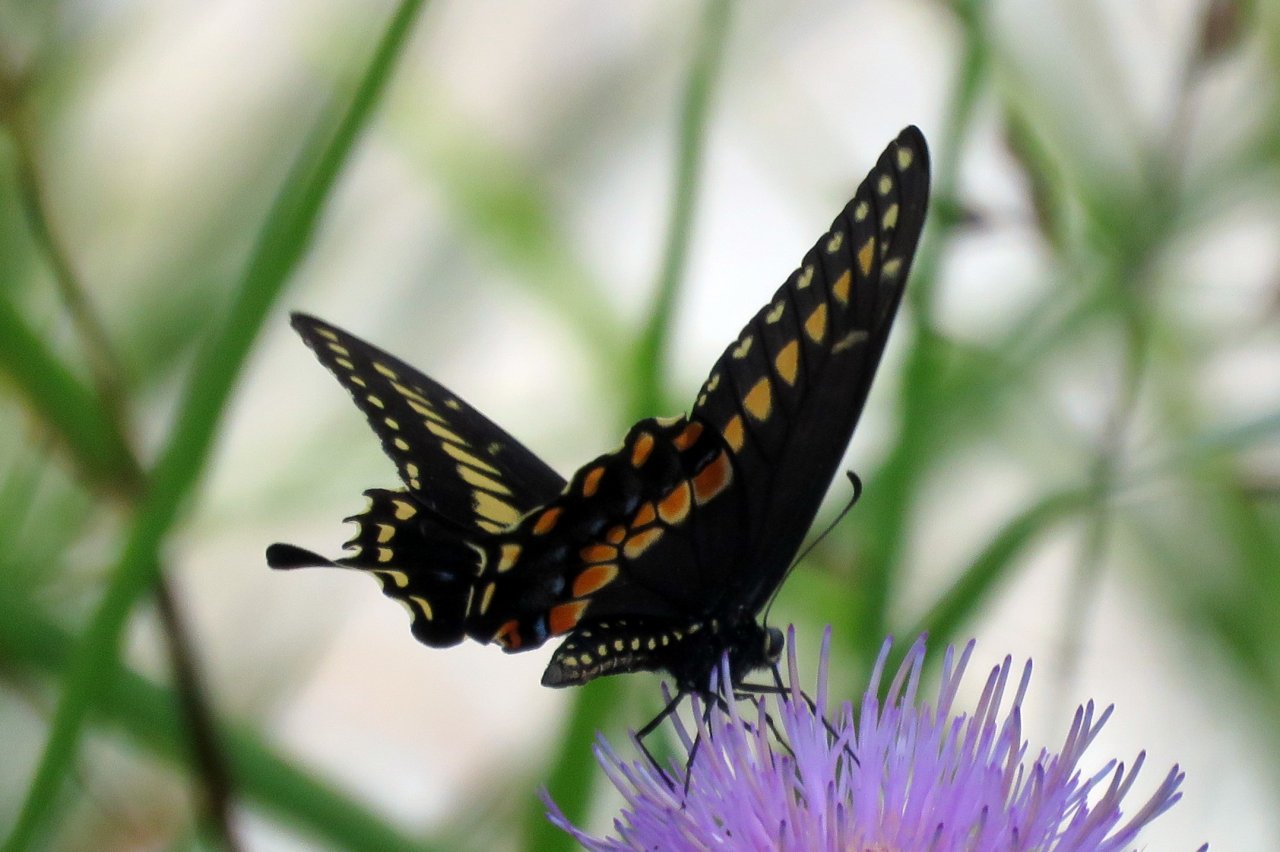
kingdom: Animalia
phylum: Arthropoda
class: Insecta
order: Lepidoptera
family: Papilionidae
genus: Papilio
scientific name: Papilio polyxenes
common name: Black Swallowtail
